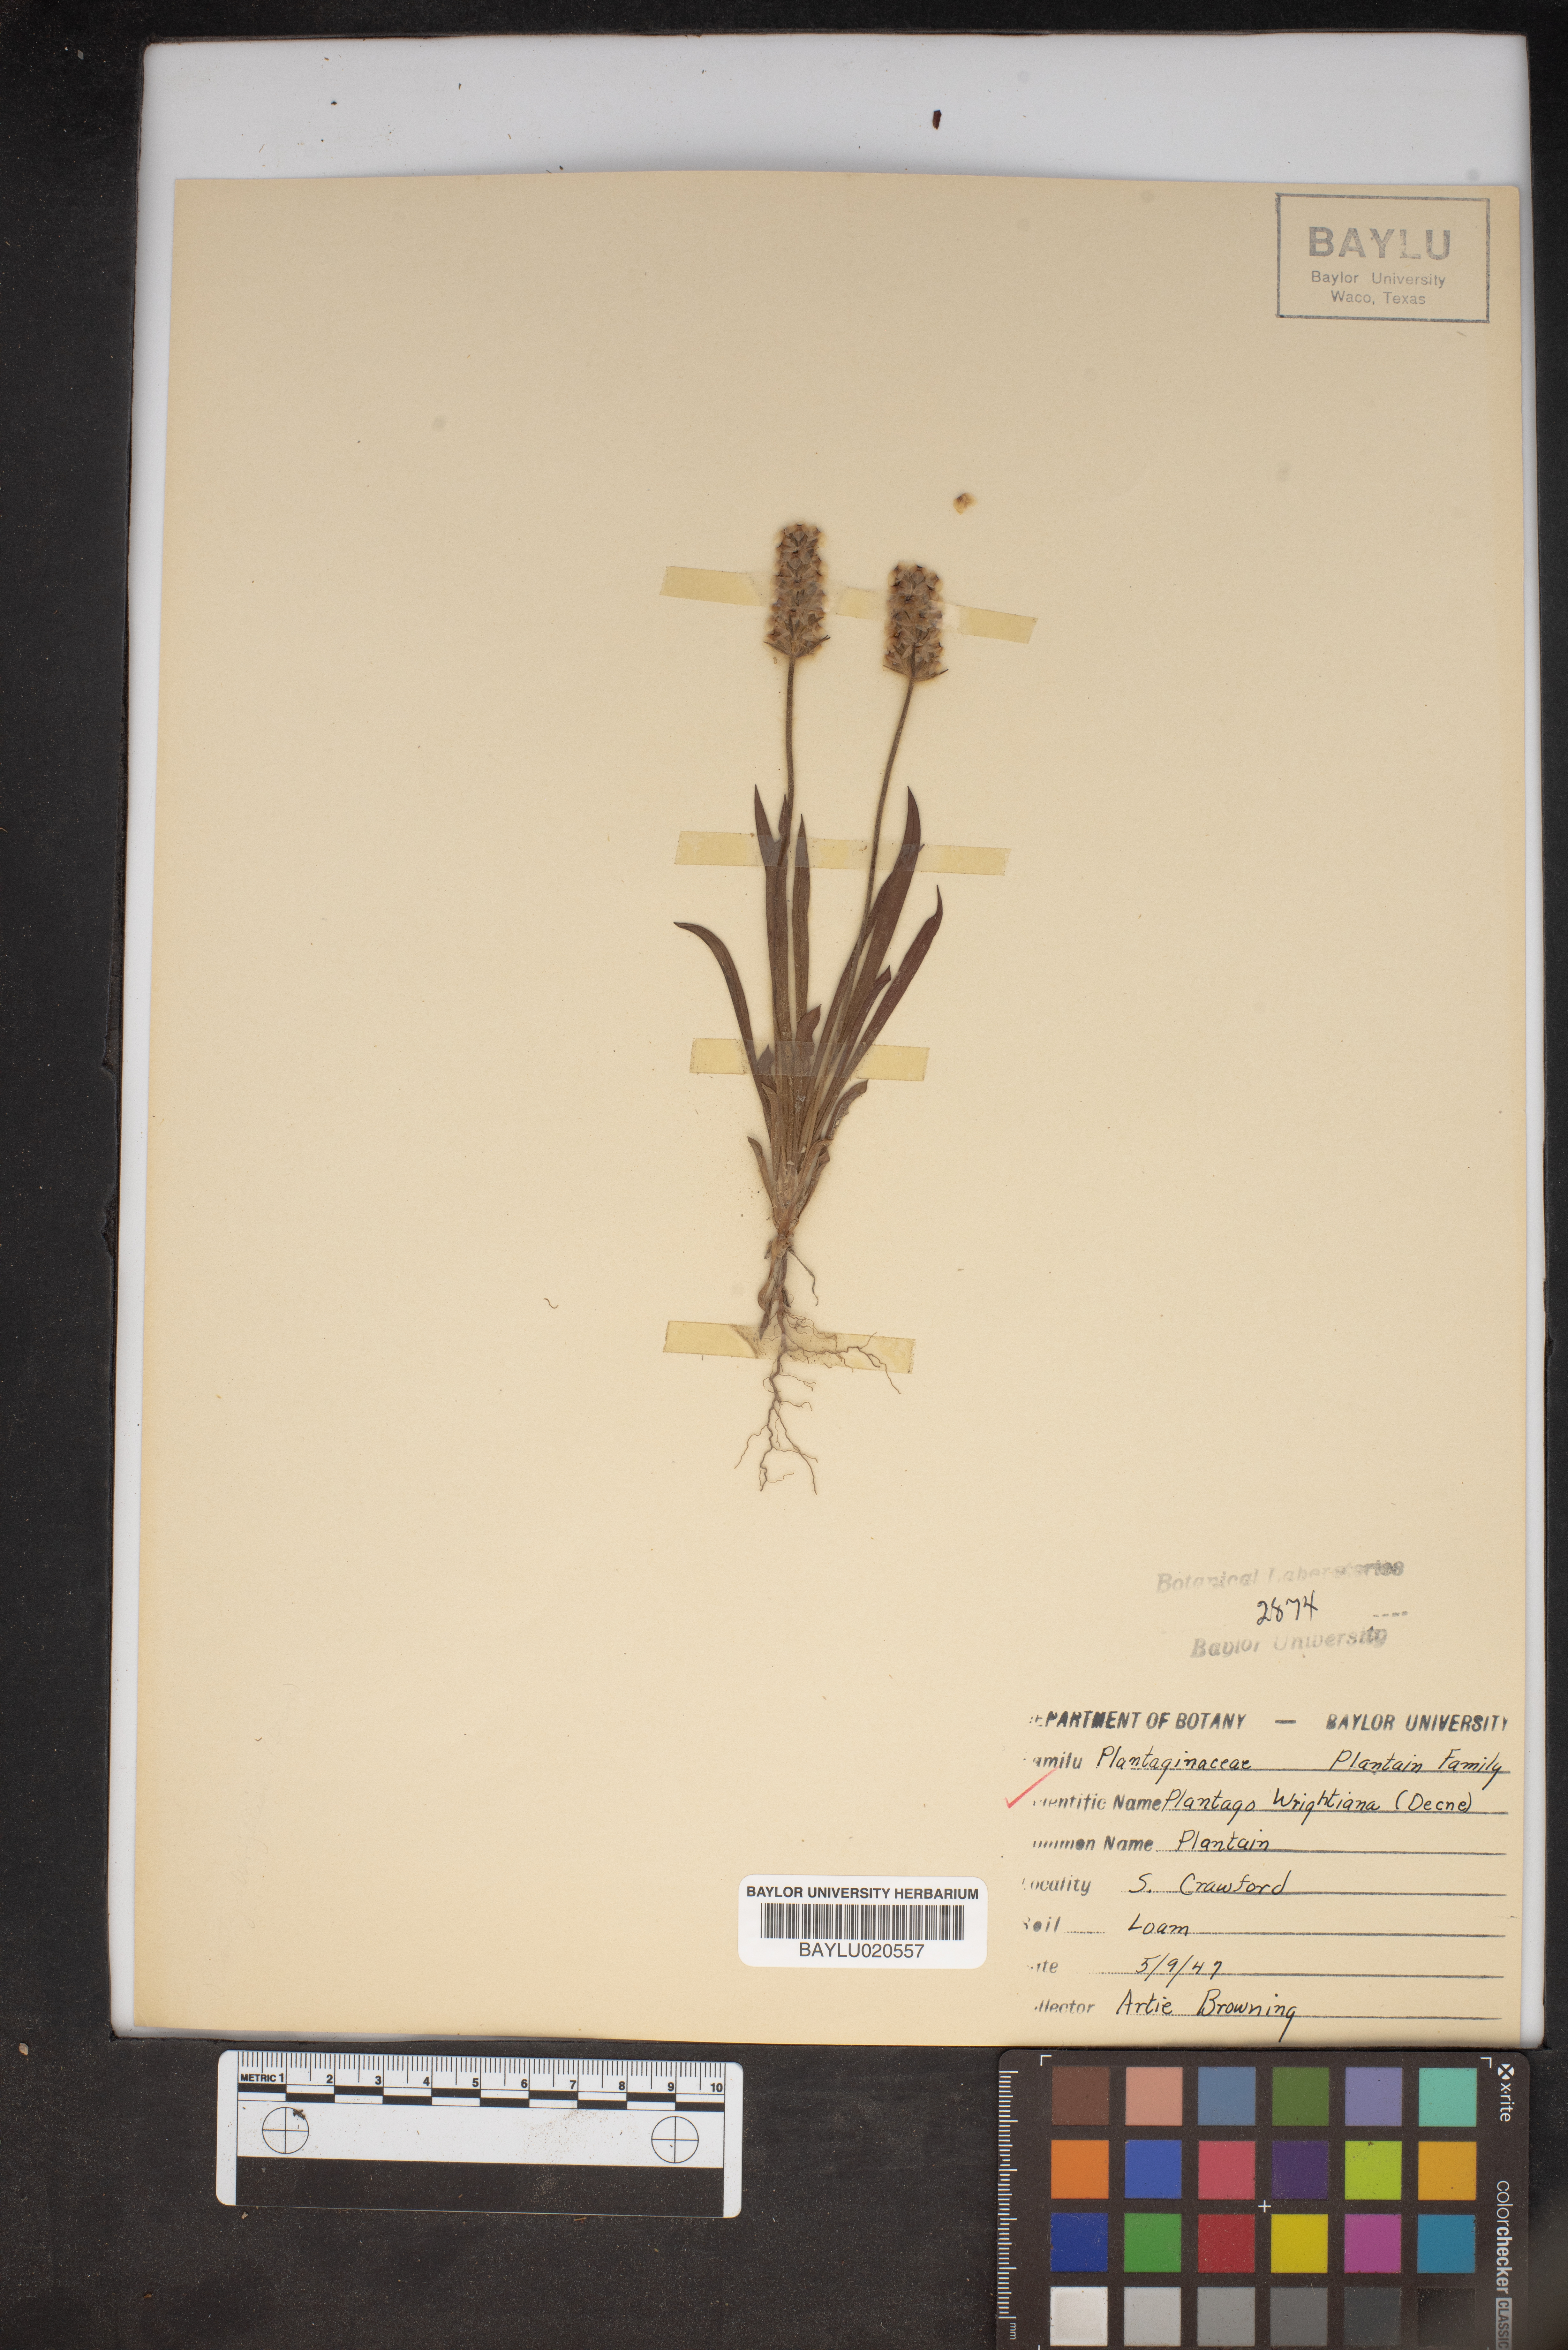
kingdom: Plantae
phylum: Tracheophyta
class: Magnoliopsida
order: Lamiales
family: Plantaginaceae
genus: Plantago
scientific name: Plantago wrightiana
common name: Wright's plantain
